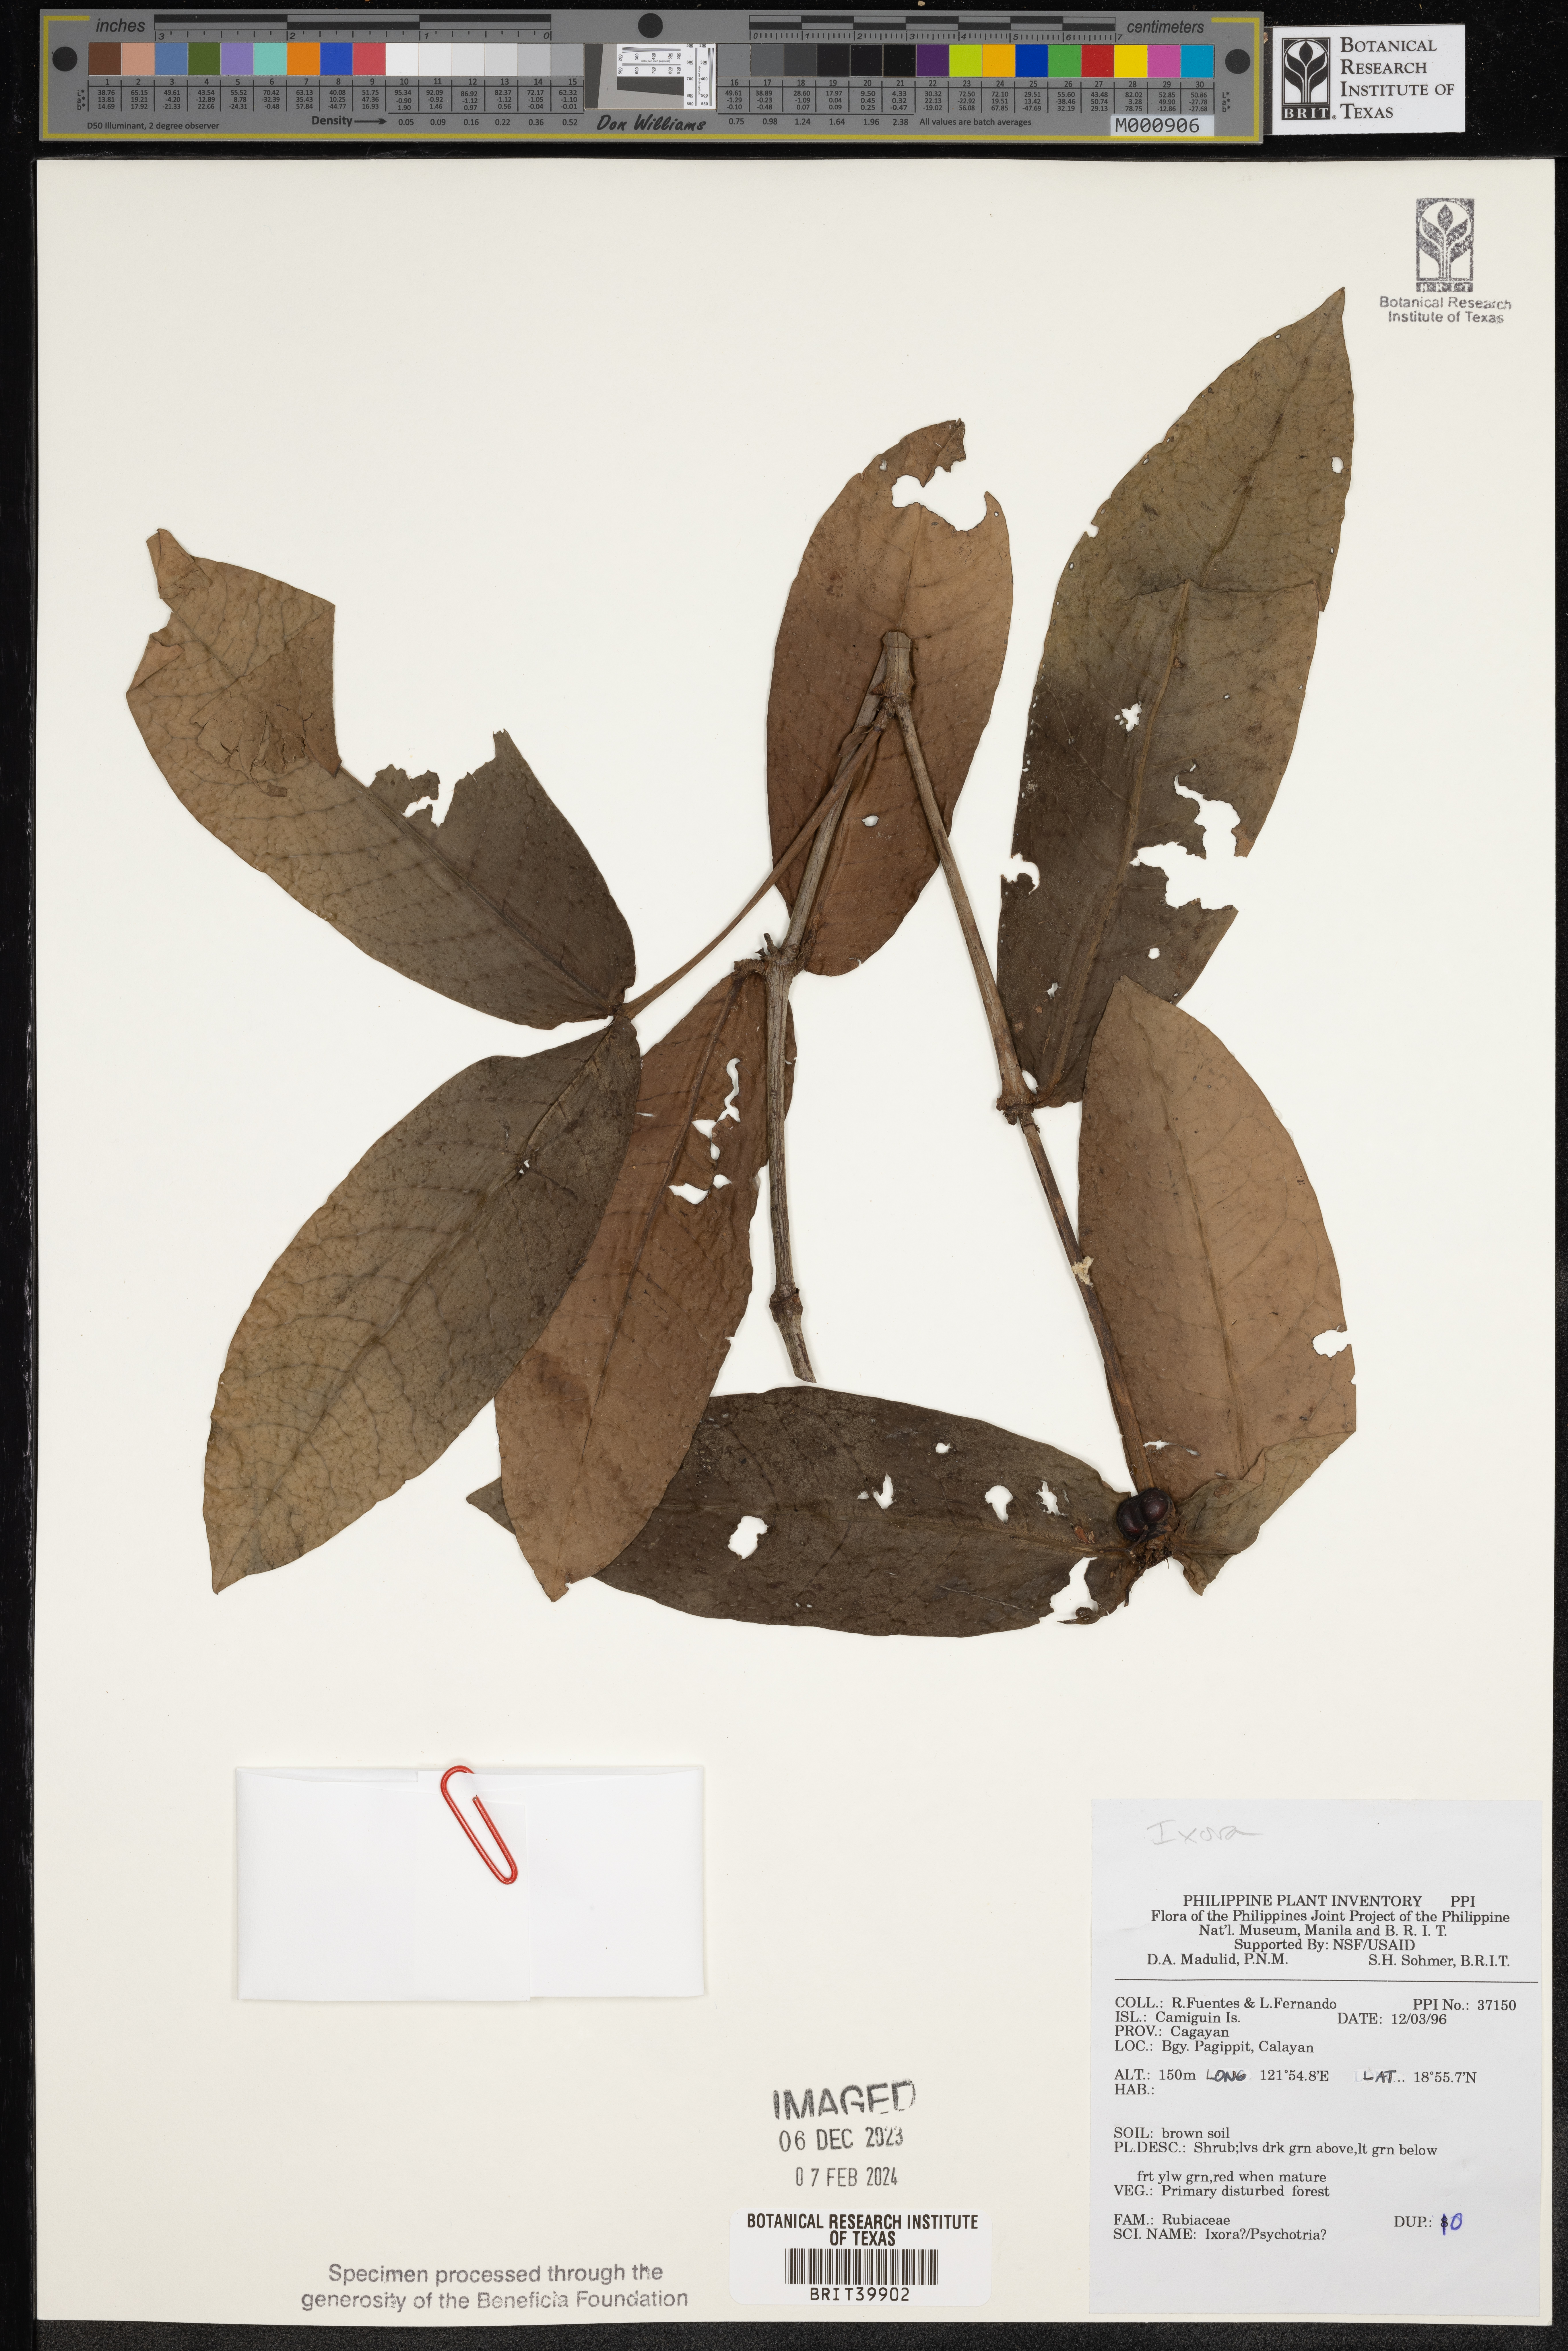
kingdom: Plantae
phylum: Tracheophyta
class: Magnoliopsida
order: Gentianales
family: Rubiaceae
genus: Ixora
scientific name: Ixora
